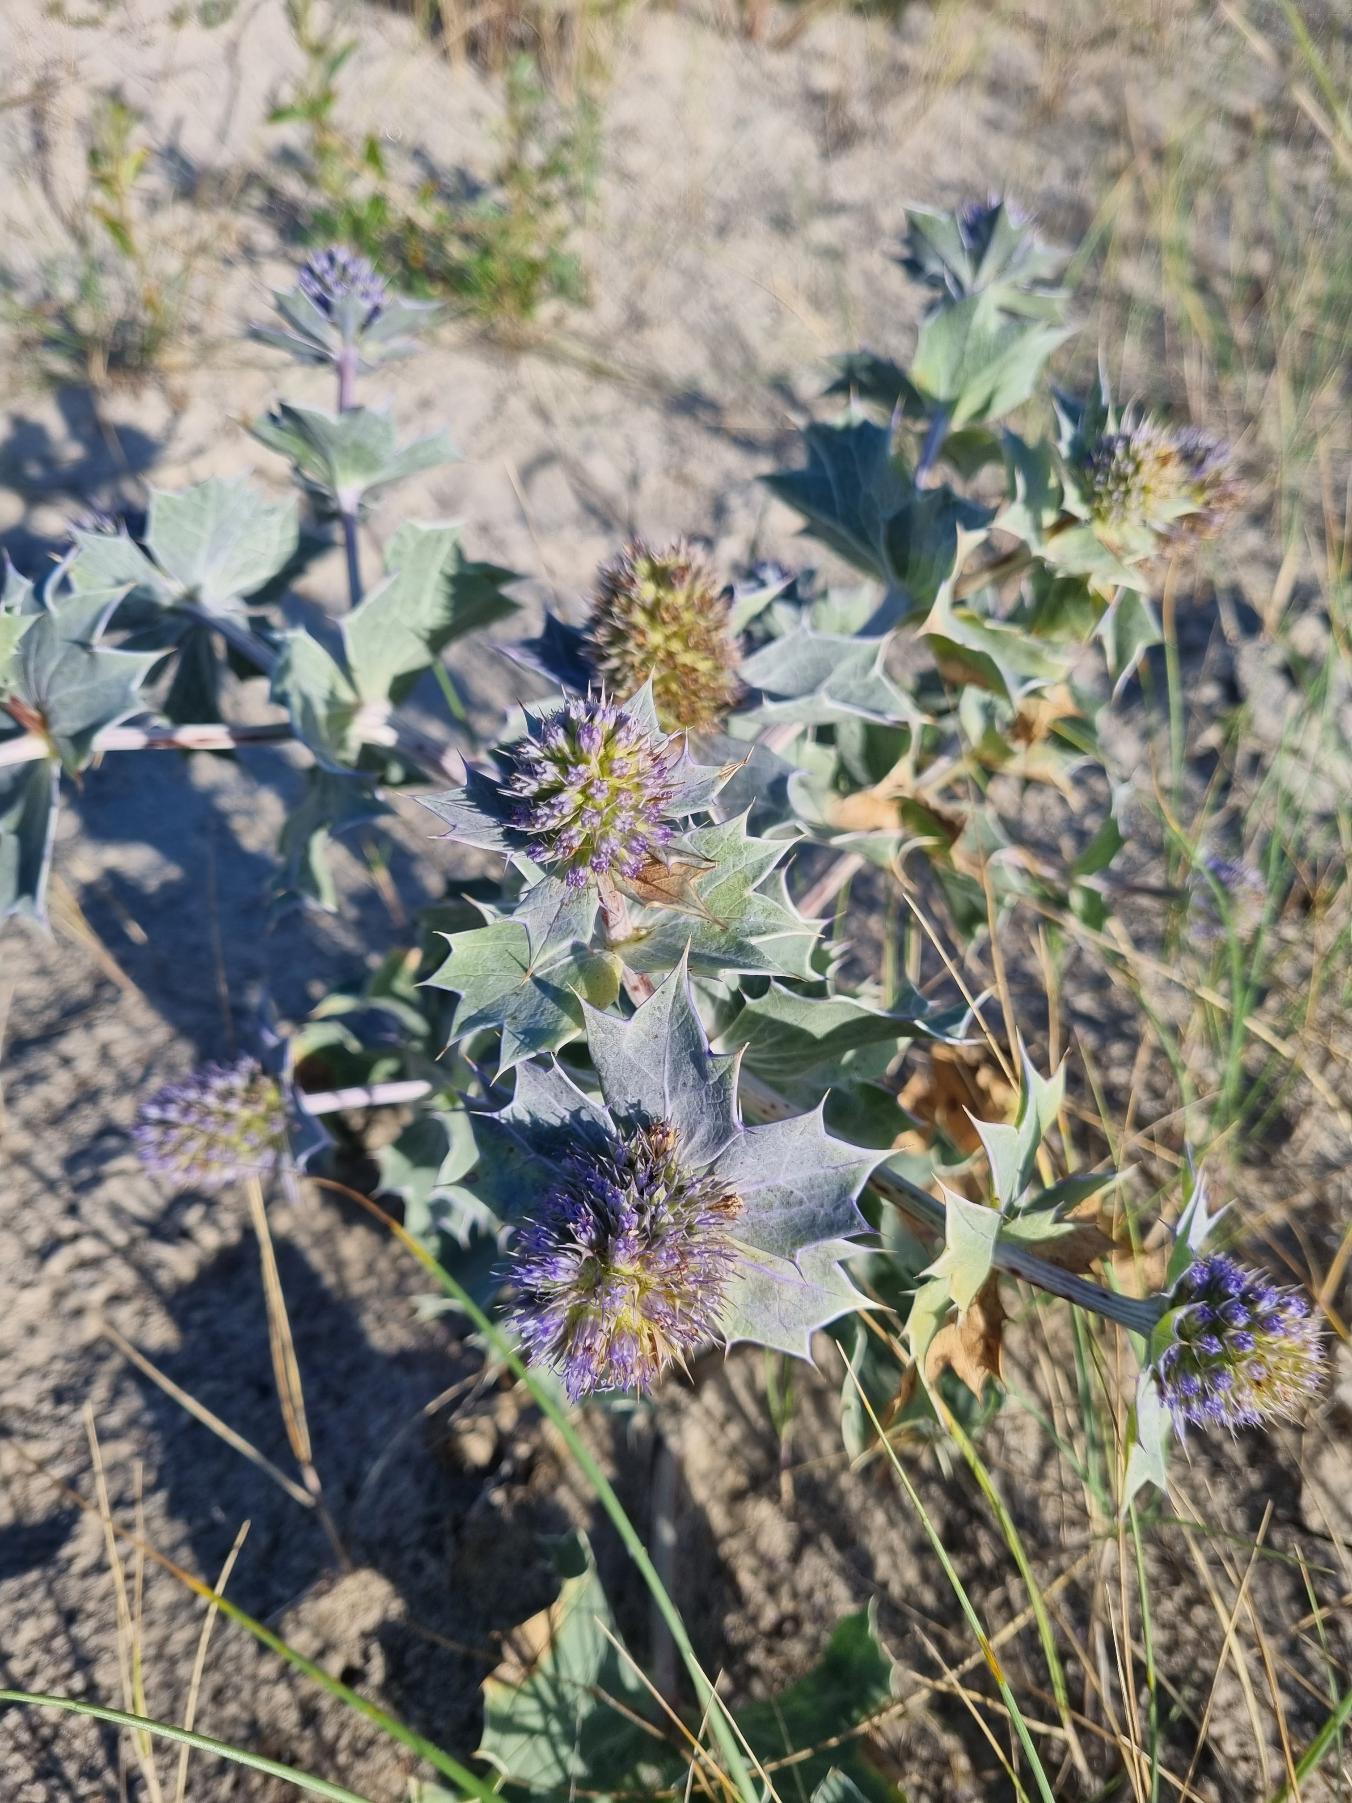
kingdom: Plantae
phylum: Tracheophyta
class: Magnoliopsida
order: Apiales
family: Apiaceae
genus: Eryngium
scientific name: Eryngium maritimum
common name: Strand-mandstro
